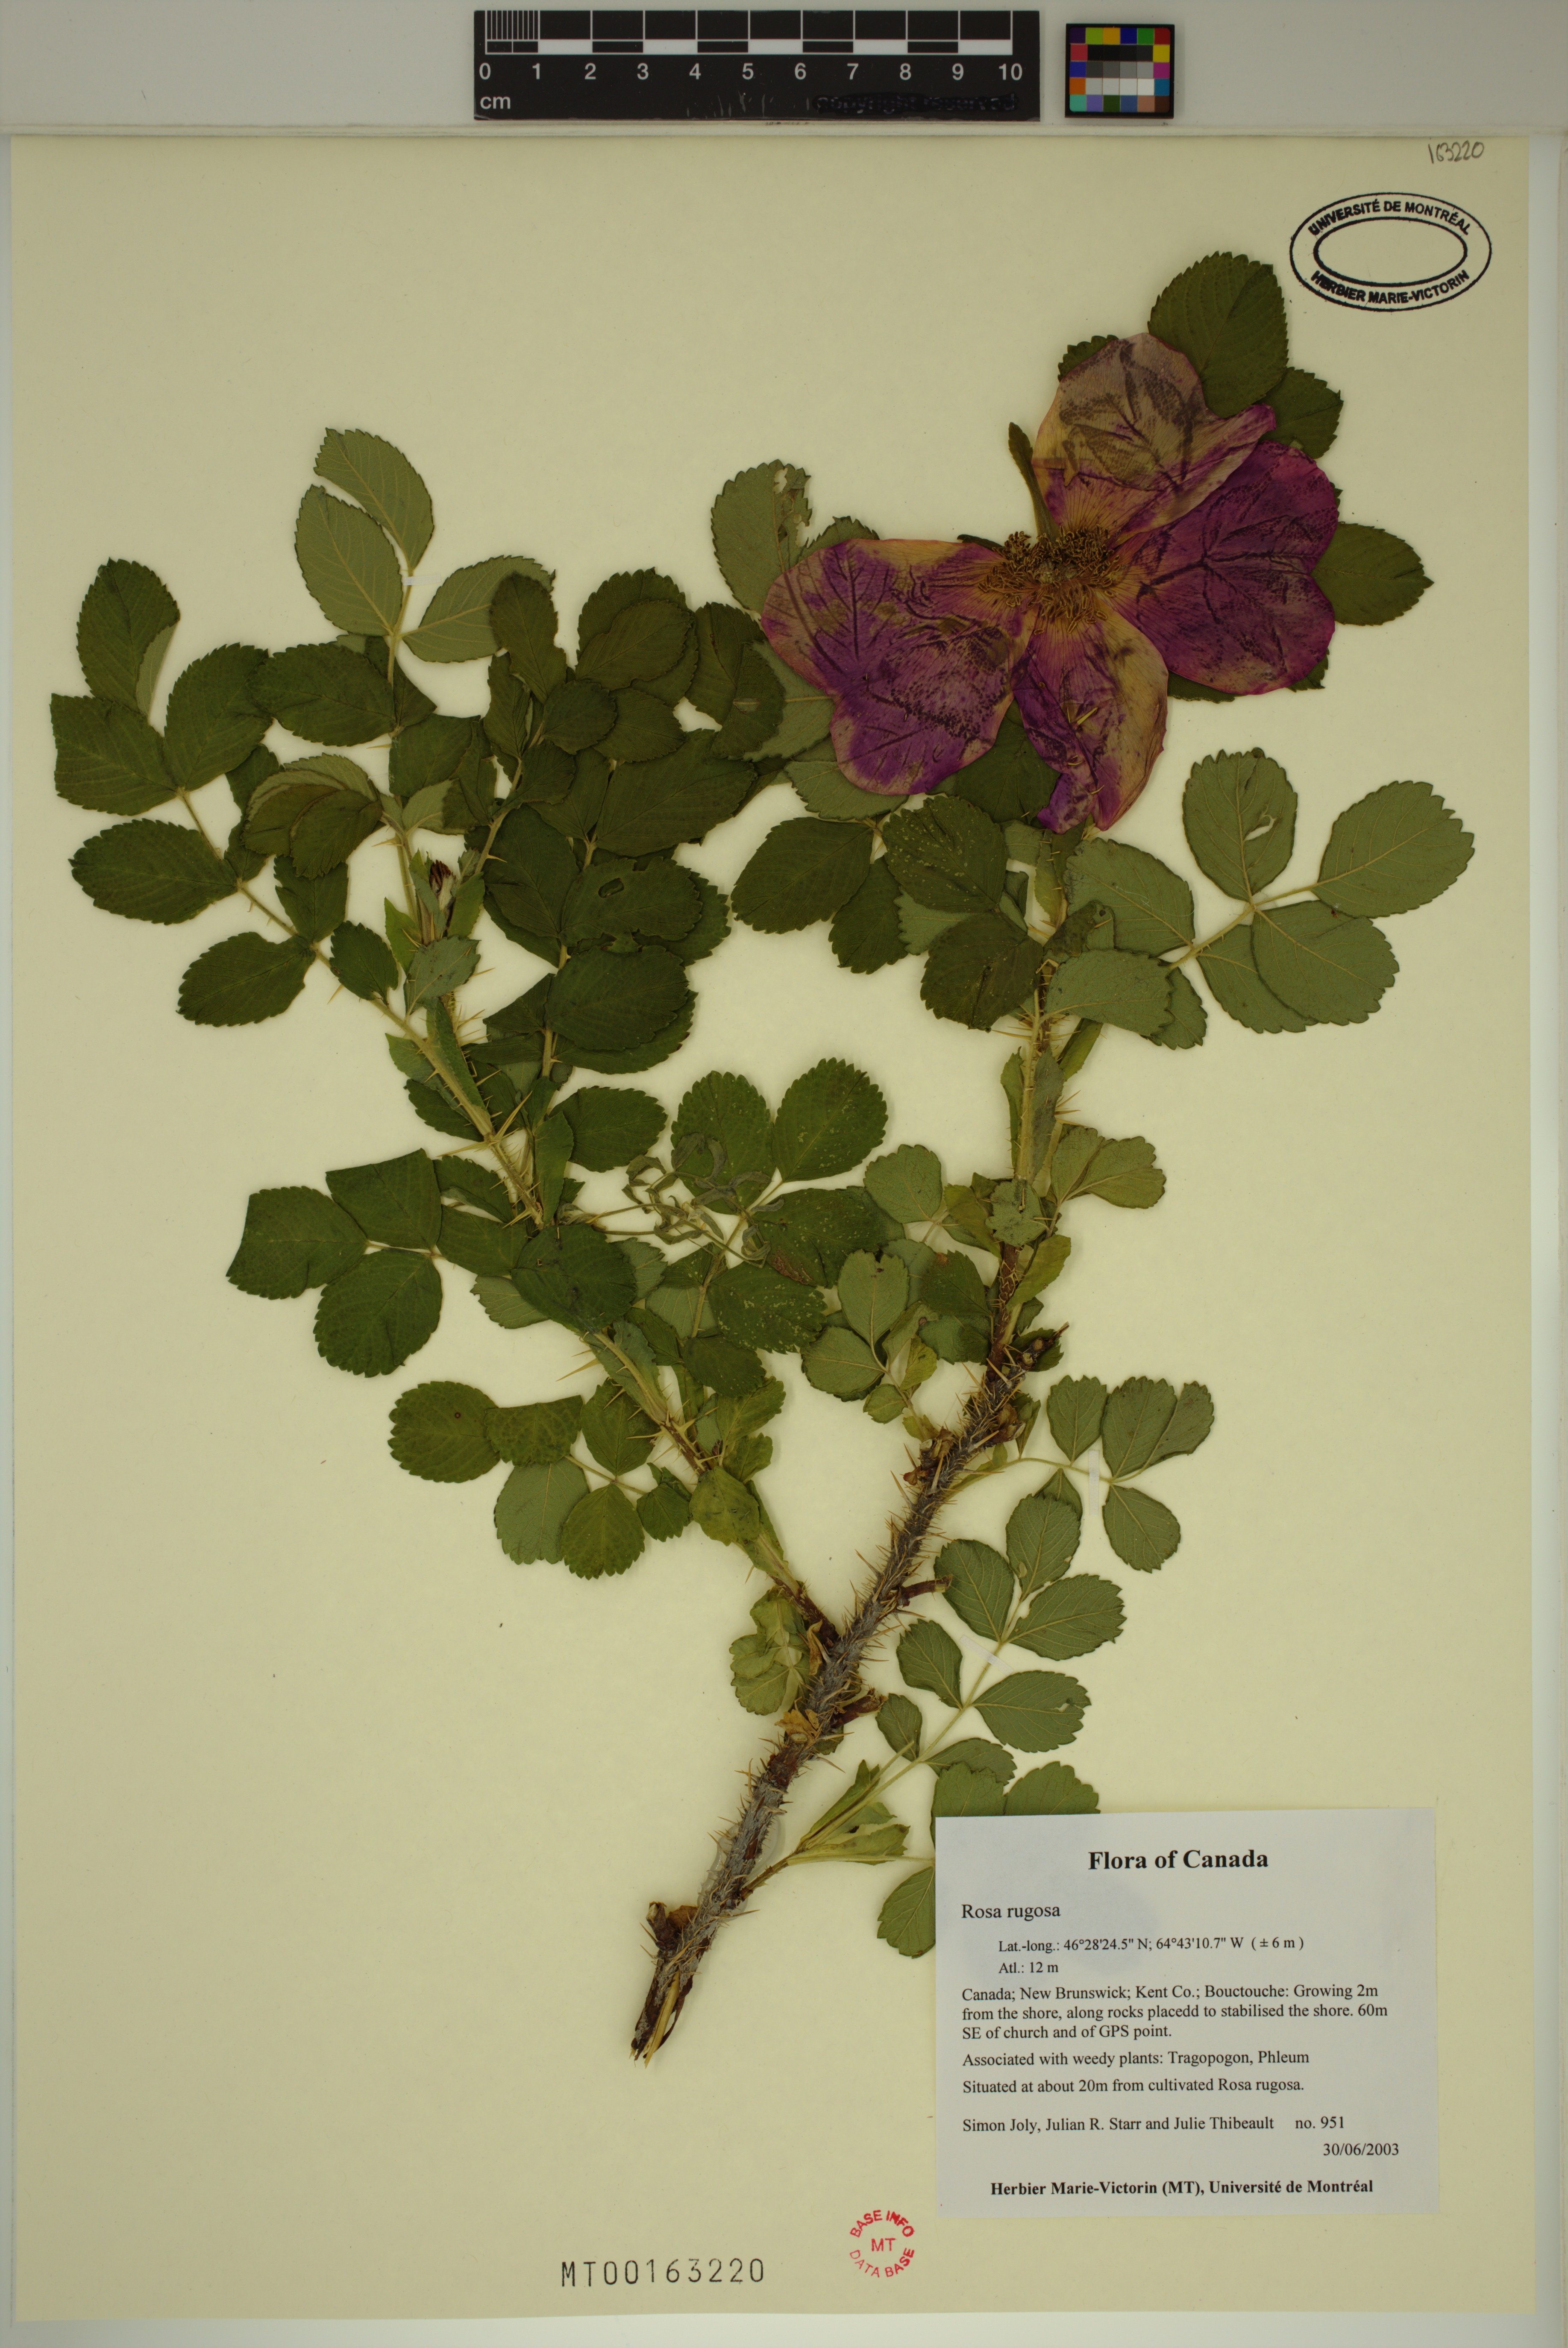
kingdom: Plantae
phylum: Tracheophyta
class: Magnoliopsida
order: Rosales
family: Rosaceae
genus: Rosa
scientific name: Rosa rugosa
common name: Japanese rose
